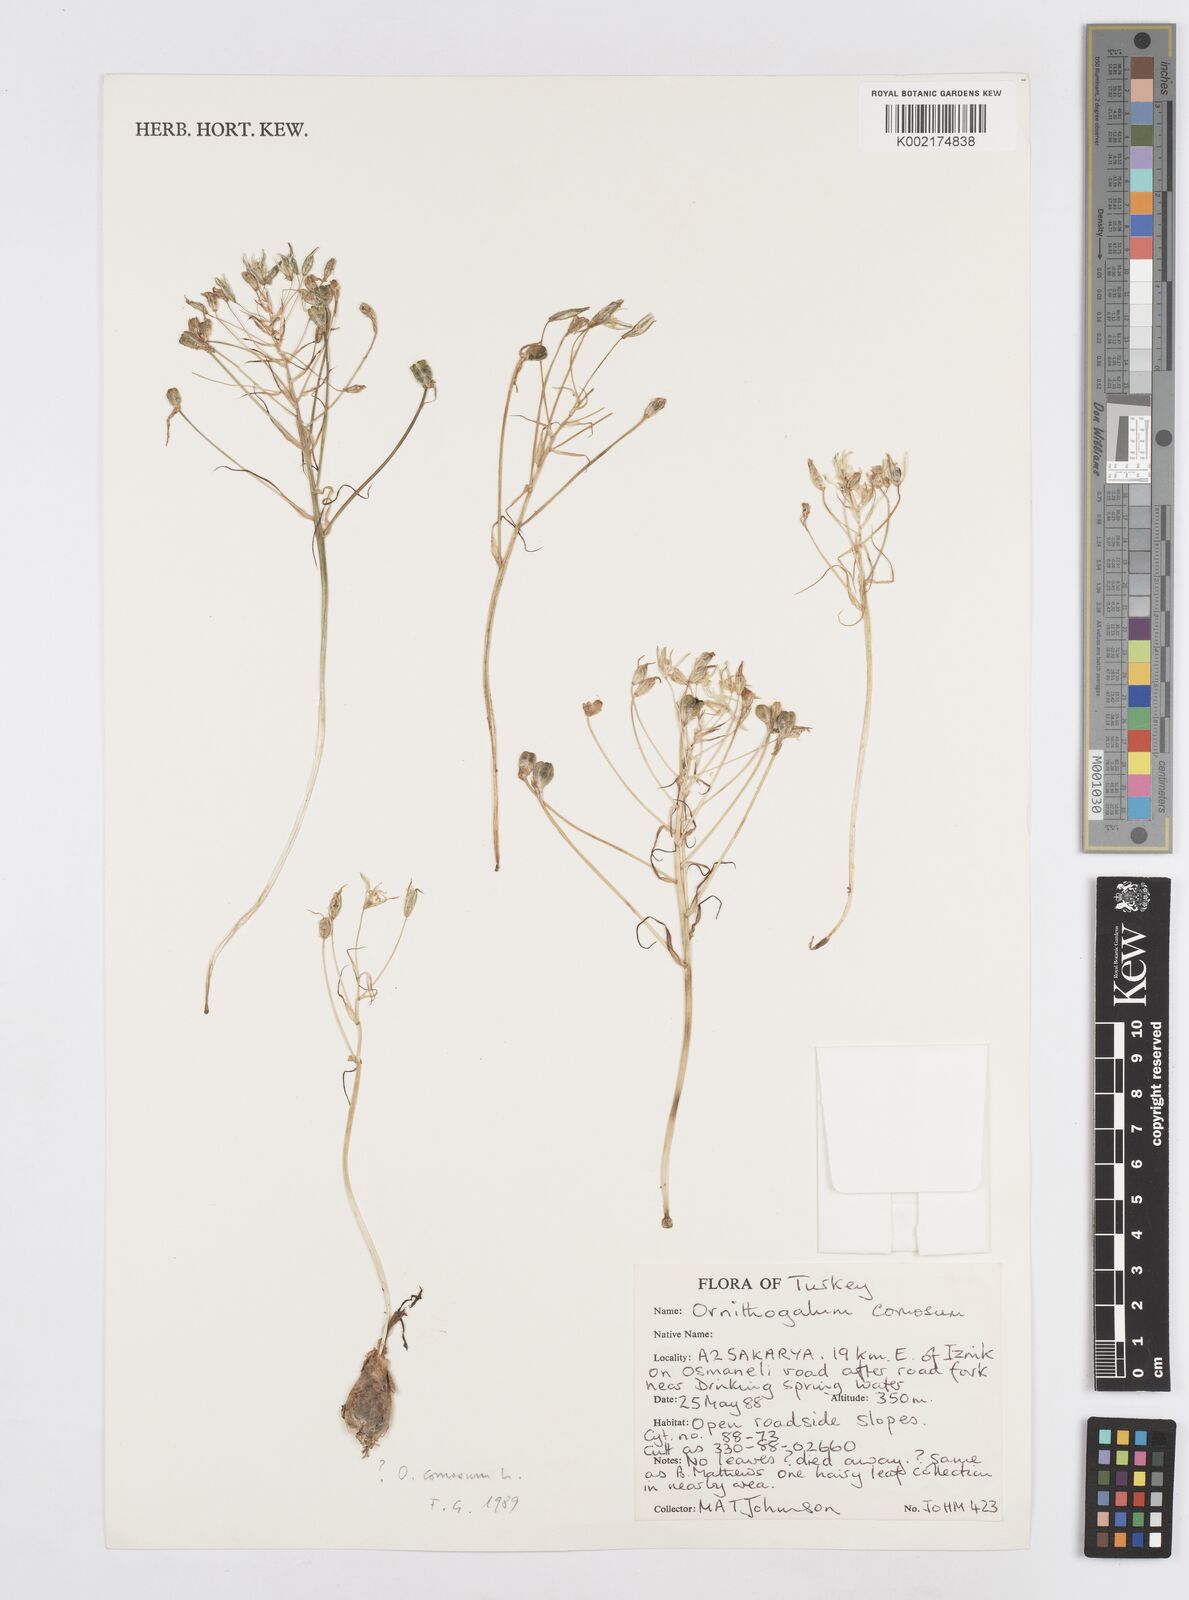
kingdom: Plantae
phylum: Tracheophyta
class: Liliopsida
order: Asparagales
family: Asparagaceae
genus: Ornithogalum
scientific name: Ornithogalum comosum
